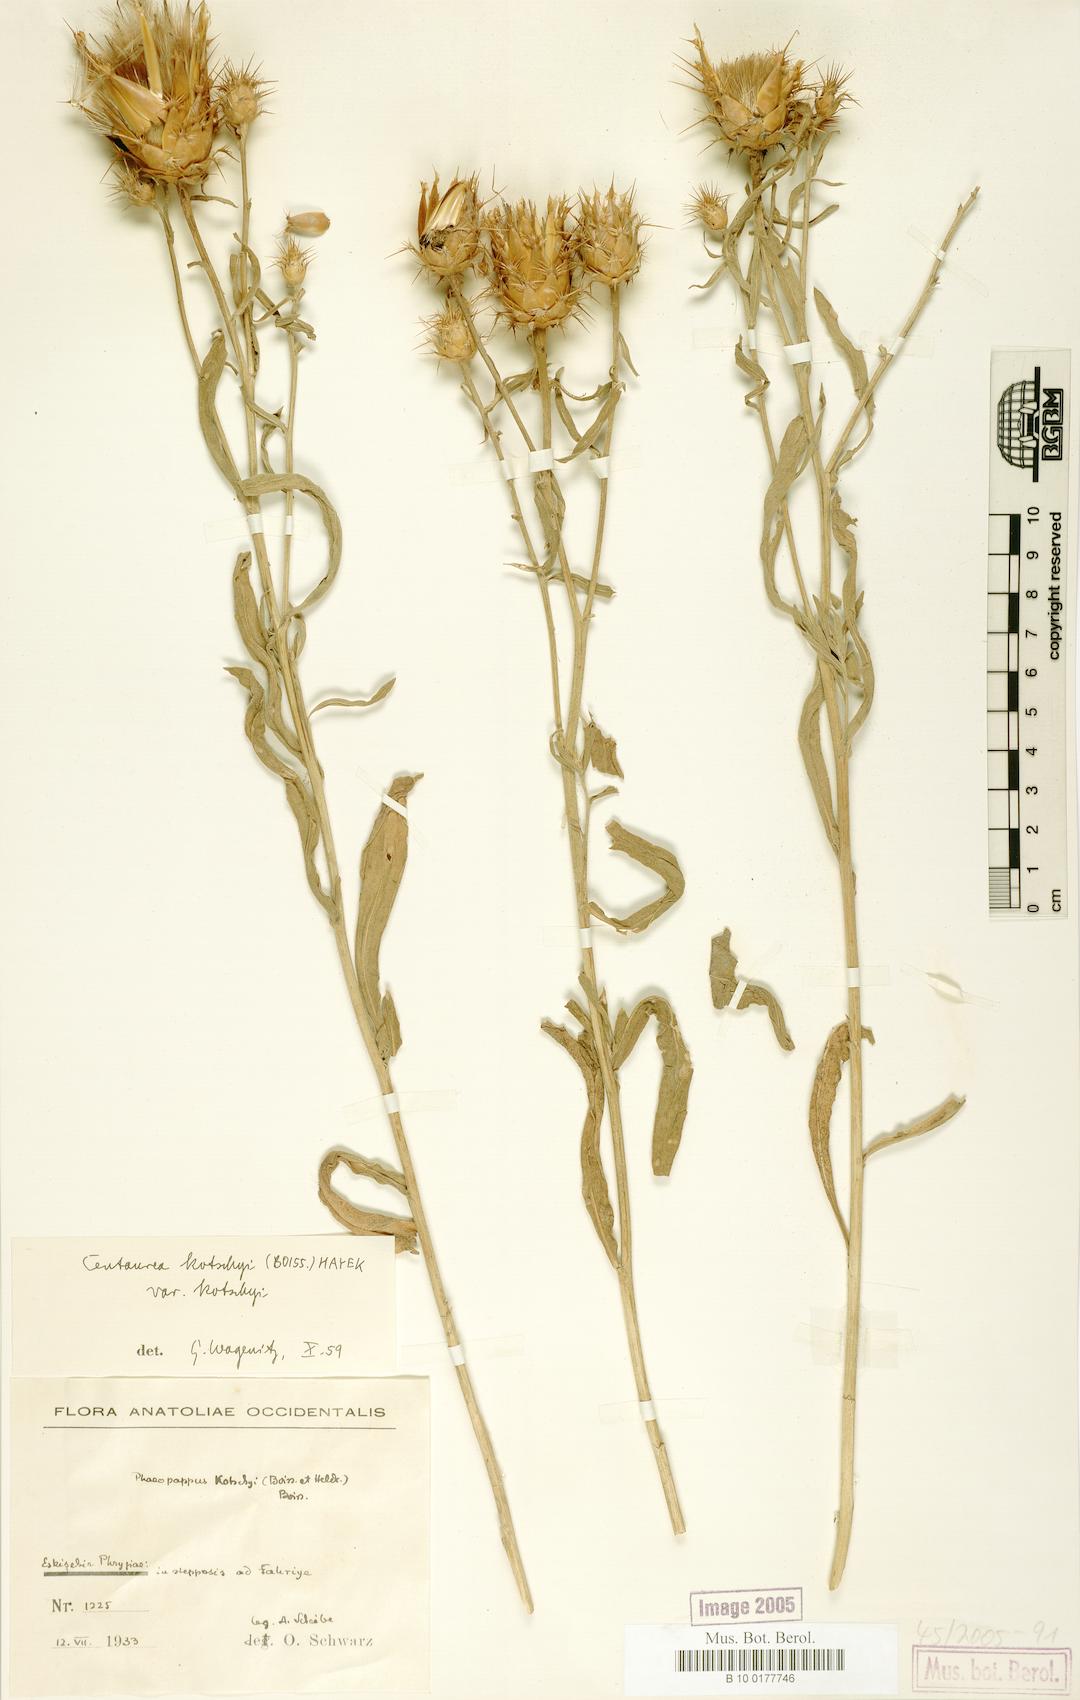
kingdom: Plantae
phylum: Tracheophyta
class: Magnoliopsida
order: Asterales
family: Asteraceae
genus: Centaurea
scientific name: Centaurea kotschyi
